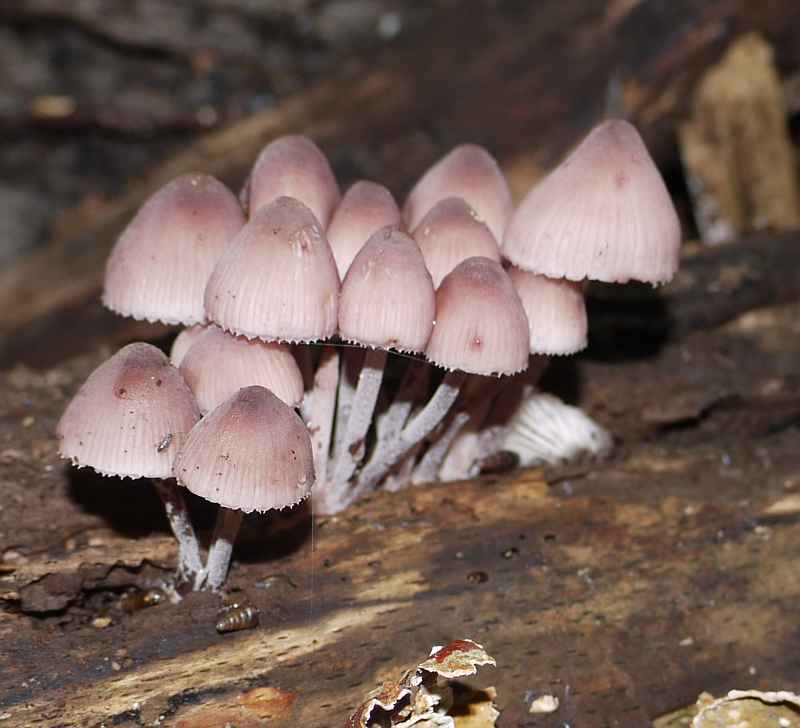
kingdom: Fungi
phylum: Basidiomycota
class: Agaricomycetes
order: Agaricales
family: Mycenaceae
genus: Mycena
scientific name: Mycena haematopus
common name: blødende huesvamp
